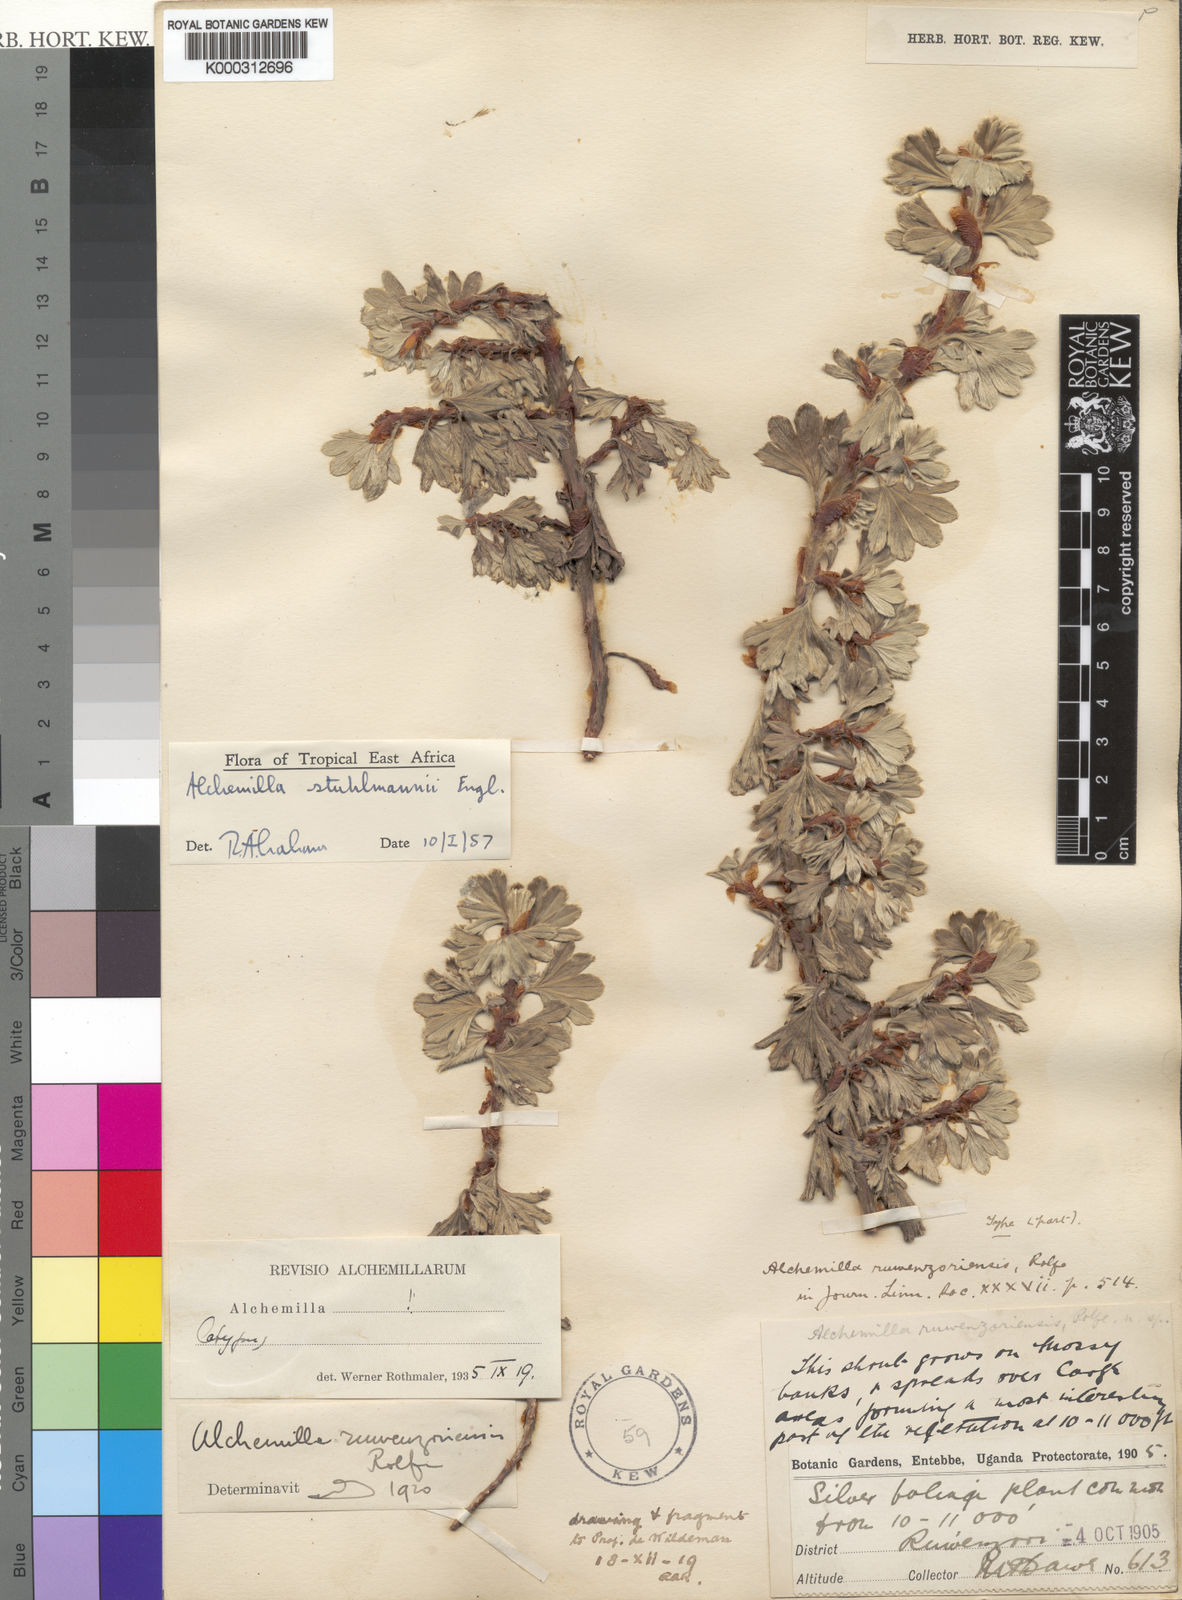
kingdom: Plantae
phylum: Tracheophyta
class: Magnoliopsida
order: Rosales
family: Rosaceae
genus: Alchemilla
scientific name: Alchemilla stuhlmannii
